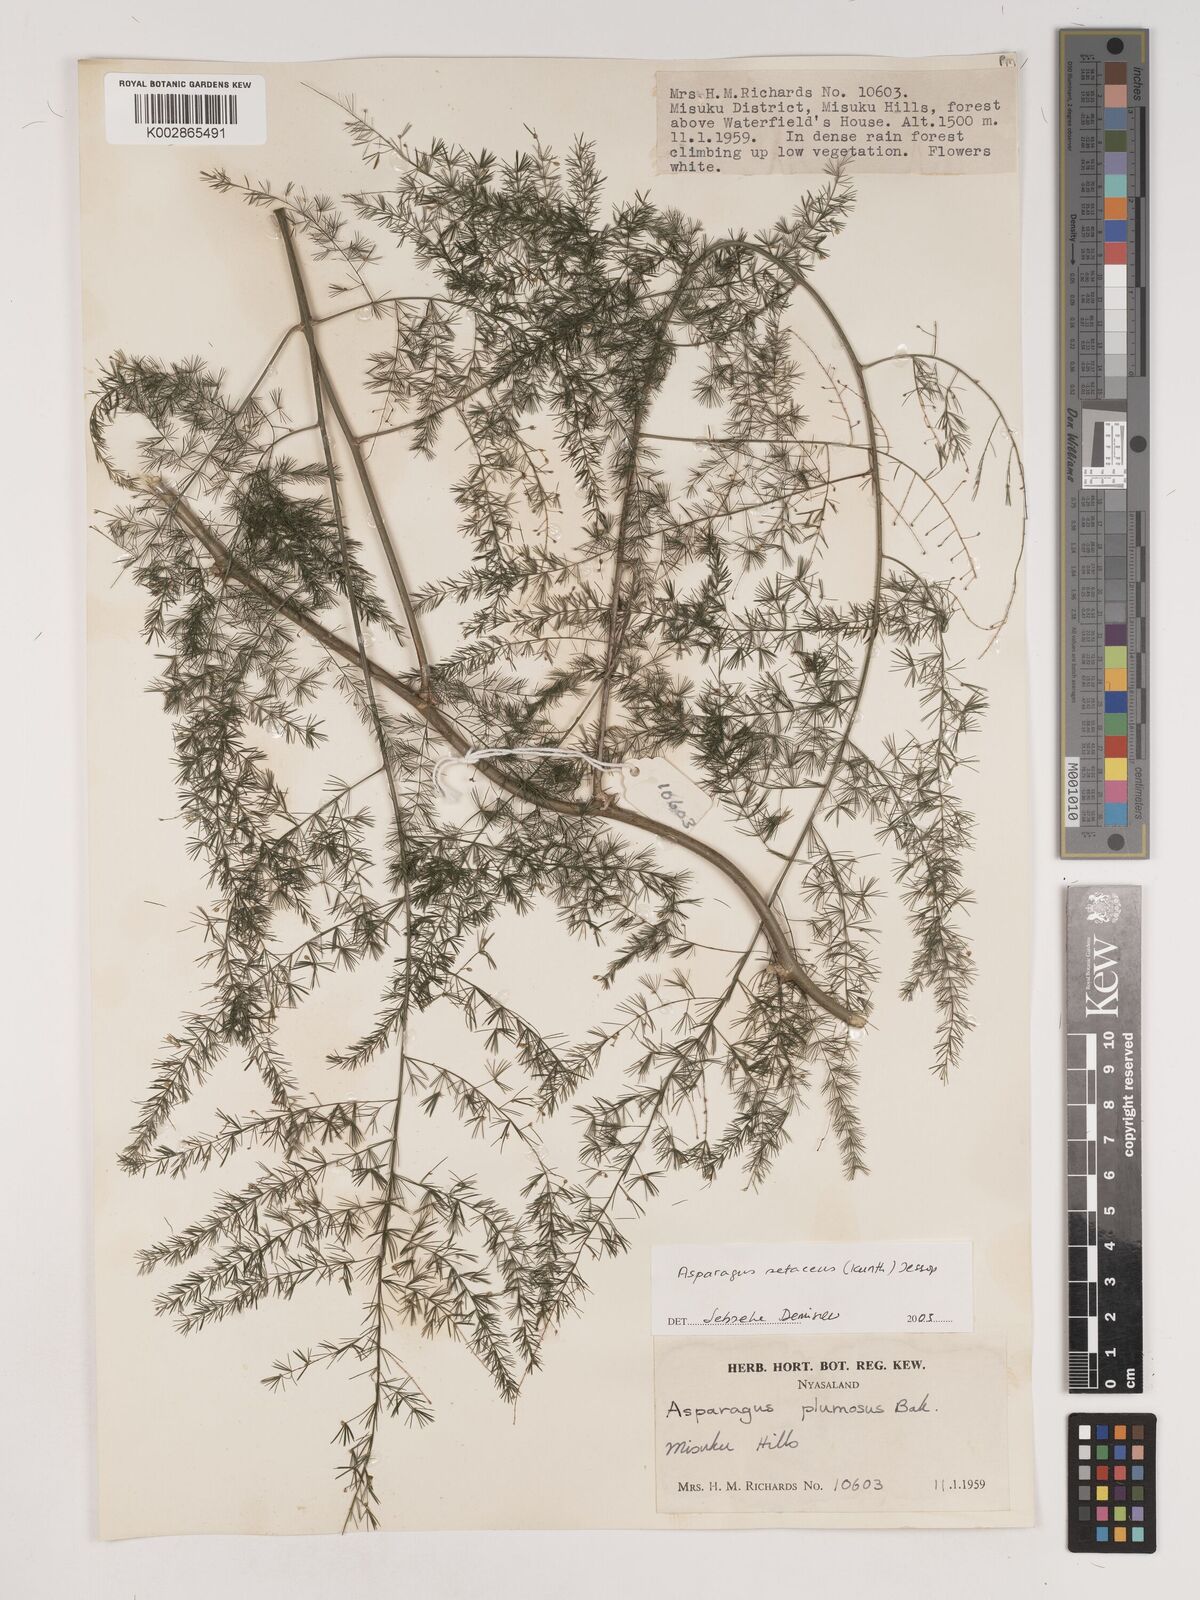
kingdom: Plantae
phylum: Tracheophyta
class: Liliopsida
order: Asparagales
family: Asparagaceae
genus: Asparagus
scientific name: Asparagus setaceus
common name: Common asparagus fern
